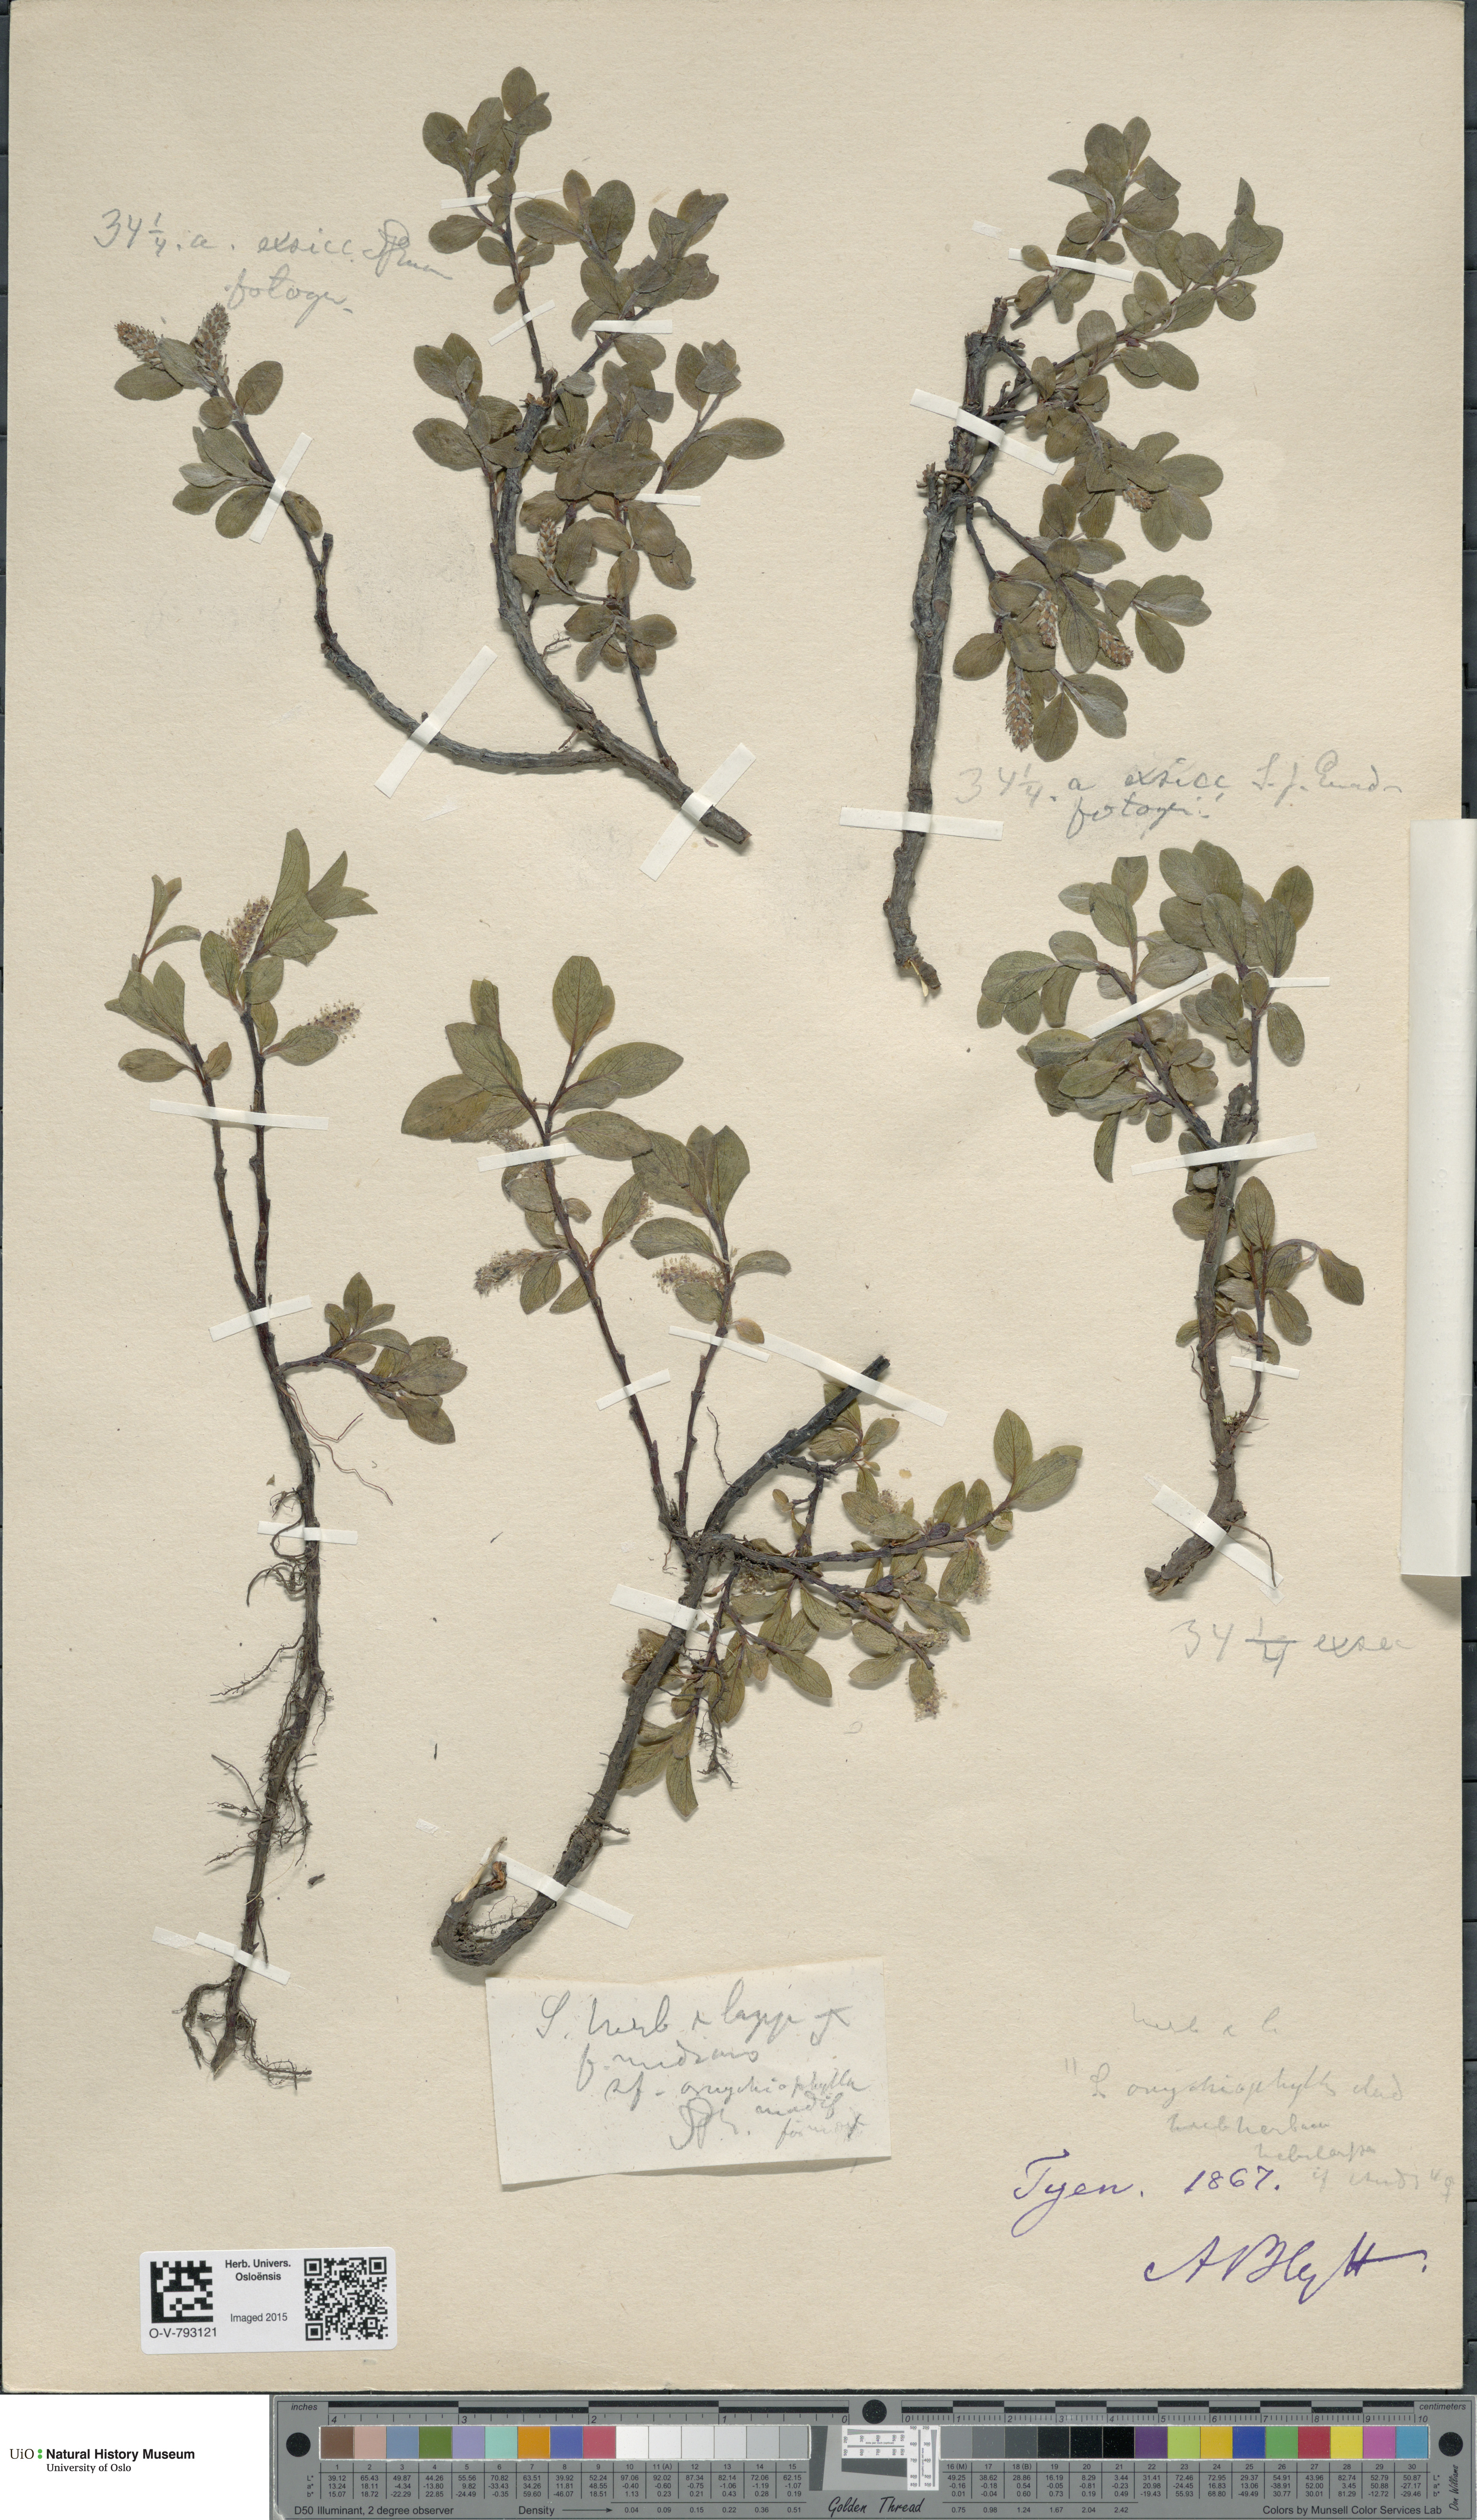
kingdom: Plantae
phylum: Tracheophyta
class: Magnoliopsida
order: Malpighiales
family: Salicaceae
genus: Salix
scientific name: Salix
